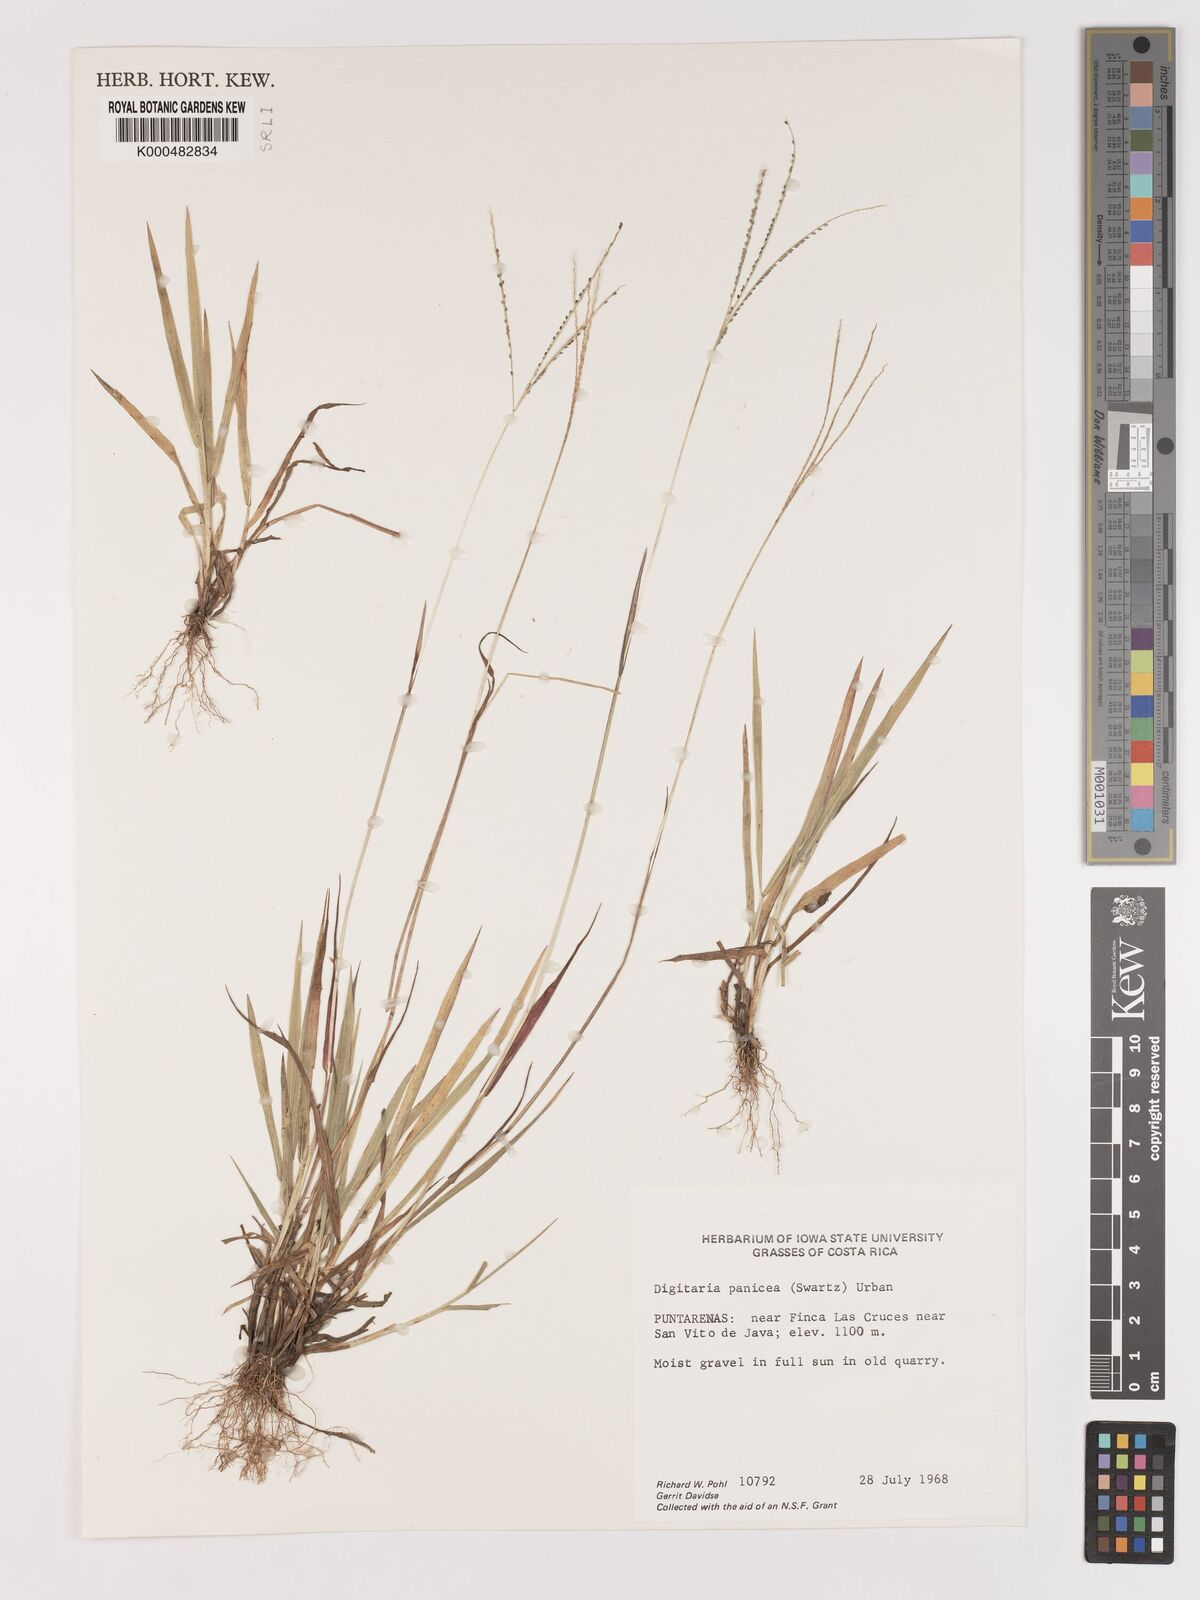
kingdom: Plantae
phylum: Tracheophyta
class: Liliopsida
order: Poales
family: Poaceae
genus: Digitaria
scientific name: Digitaria curvinervis
